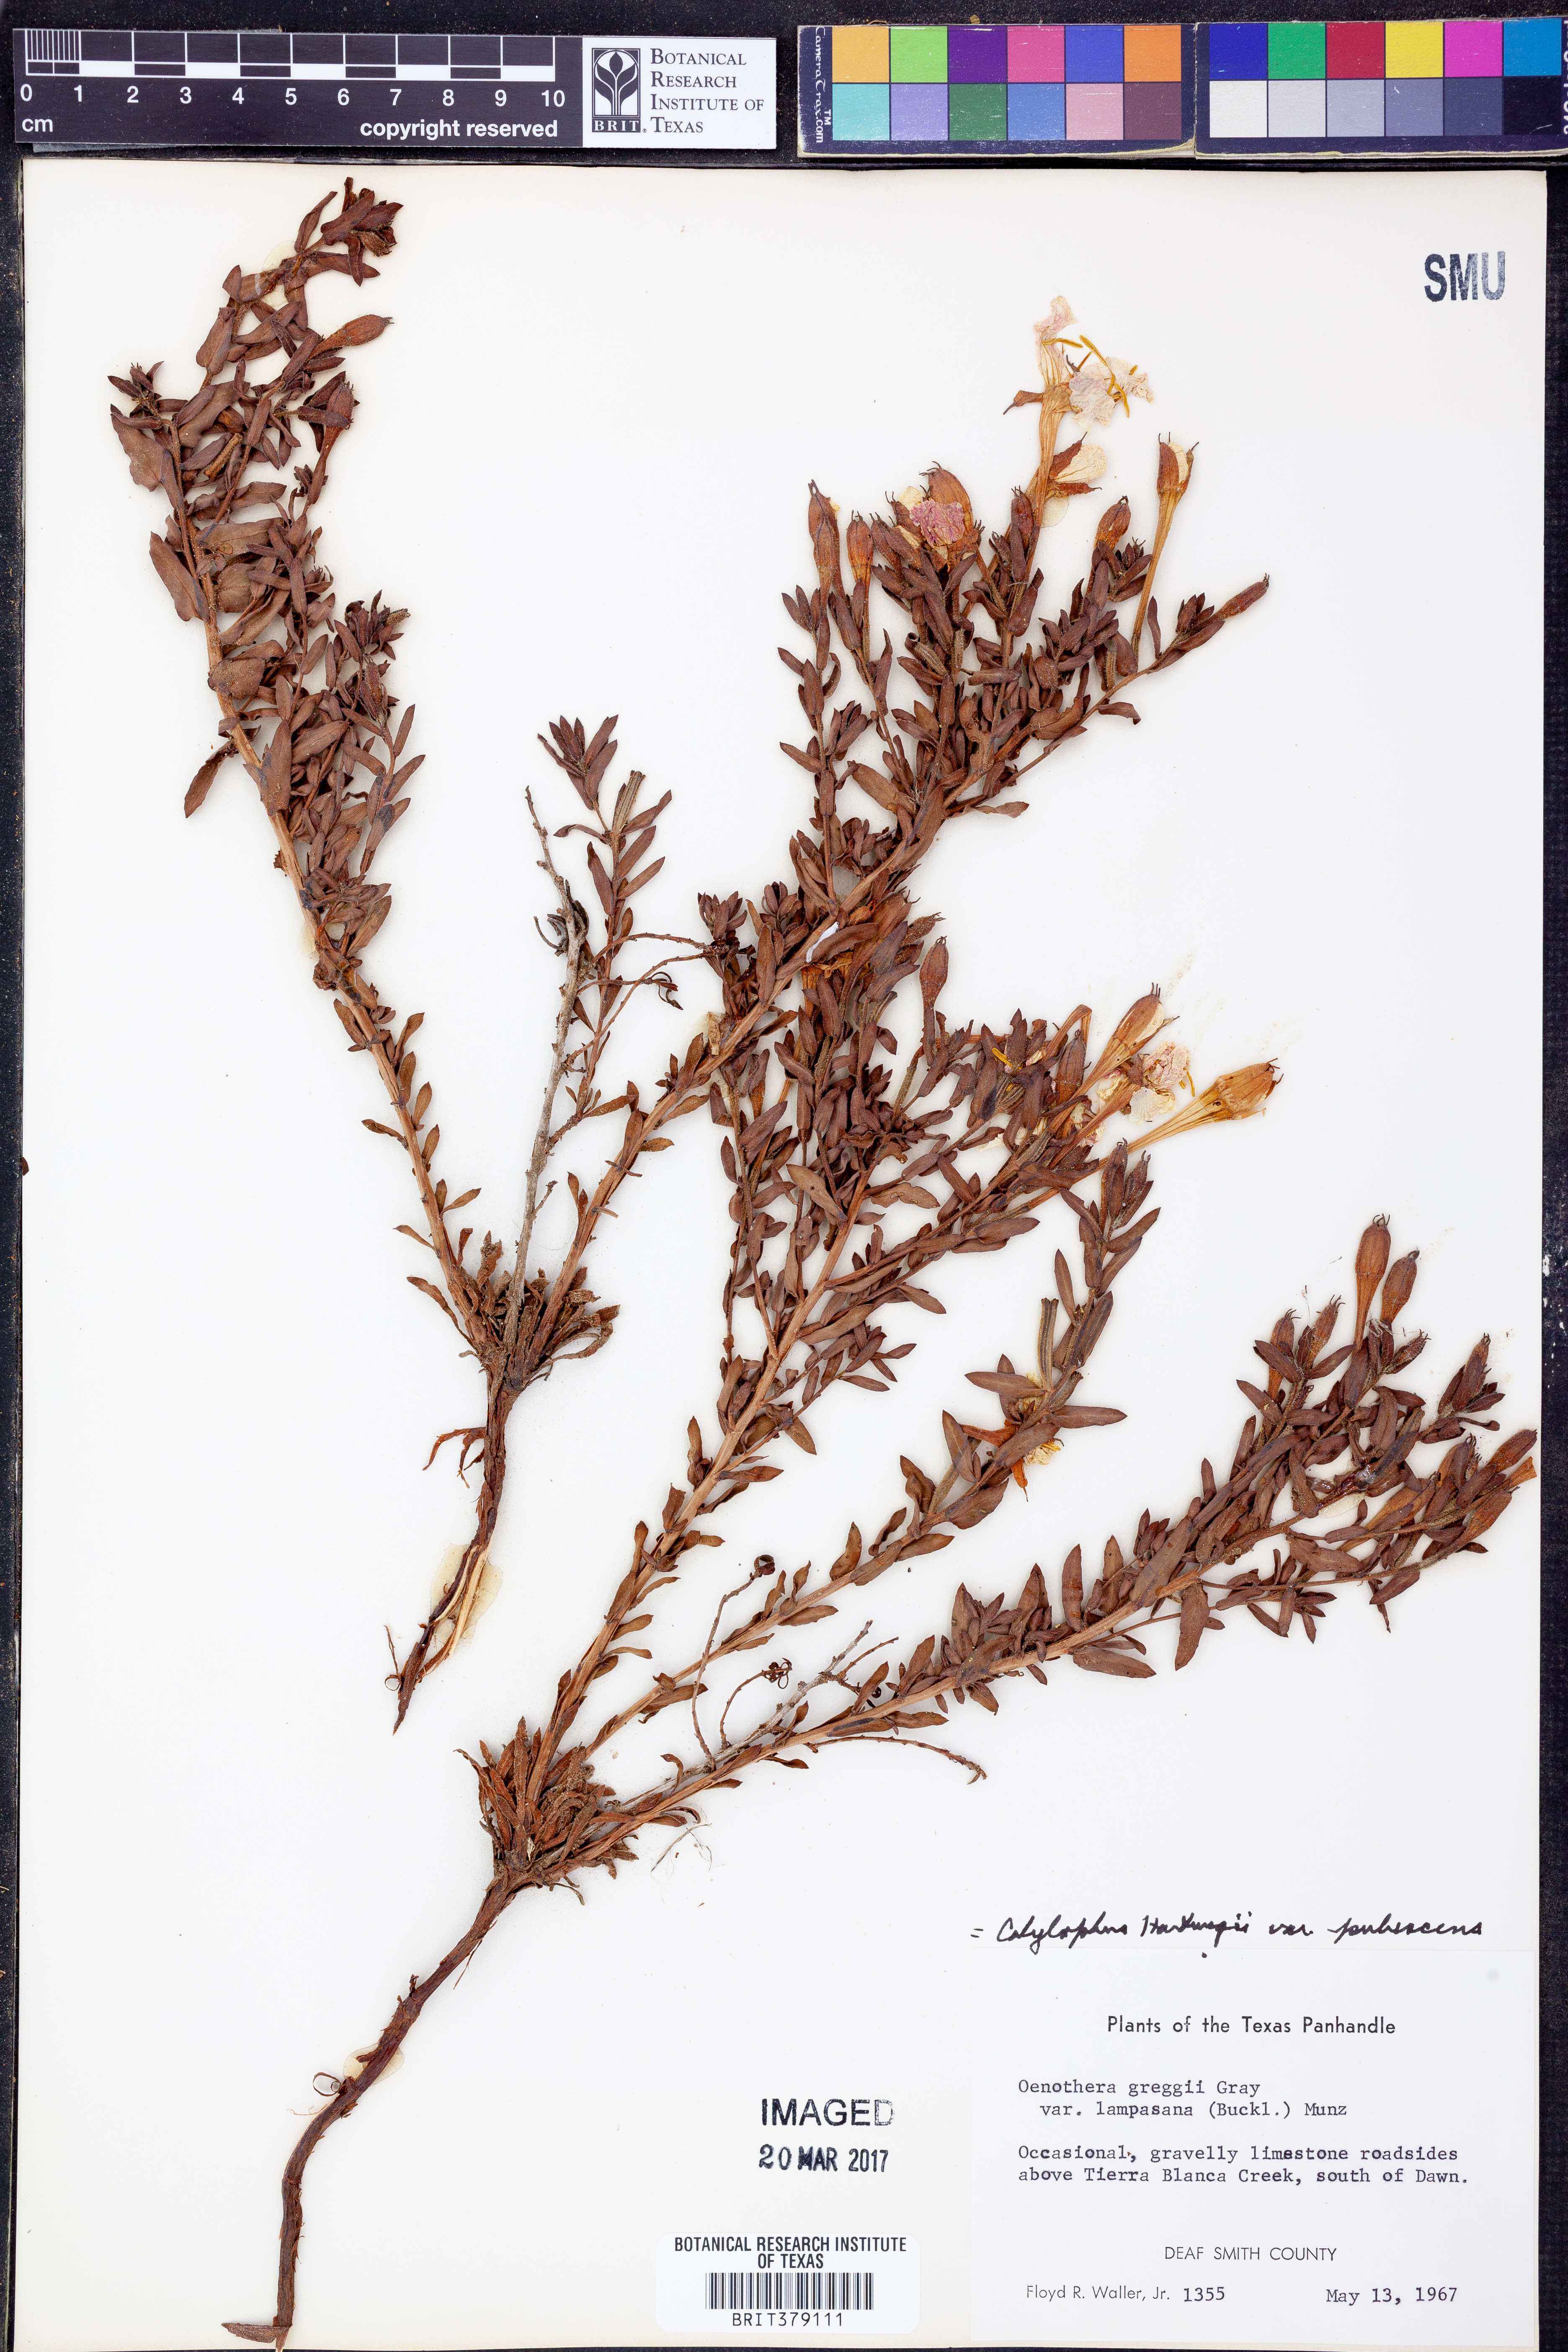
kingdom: Plantae
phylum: Tracheophyta
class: Magnoliopsida
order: Myrtales
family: Onagraceae
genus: Oenothera
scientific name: Oenothera hartwegii
